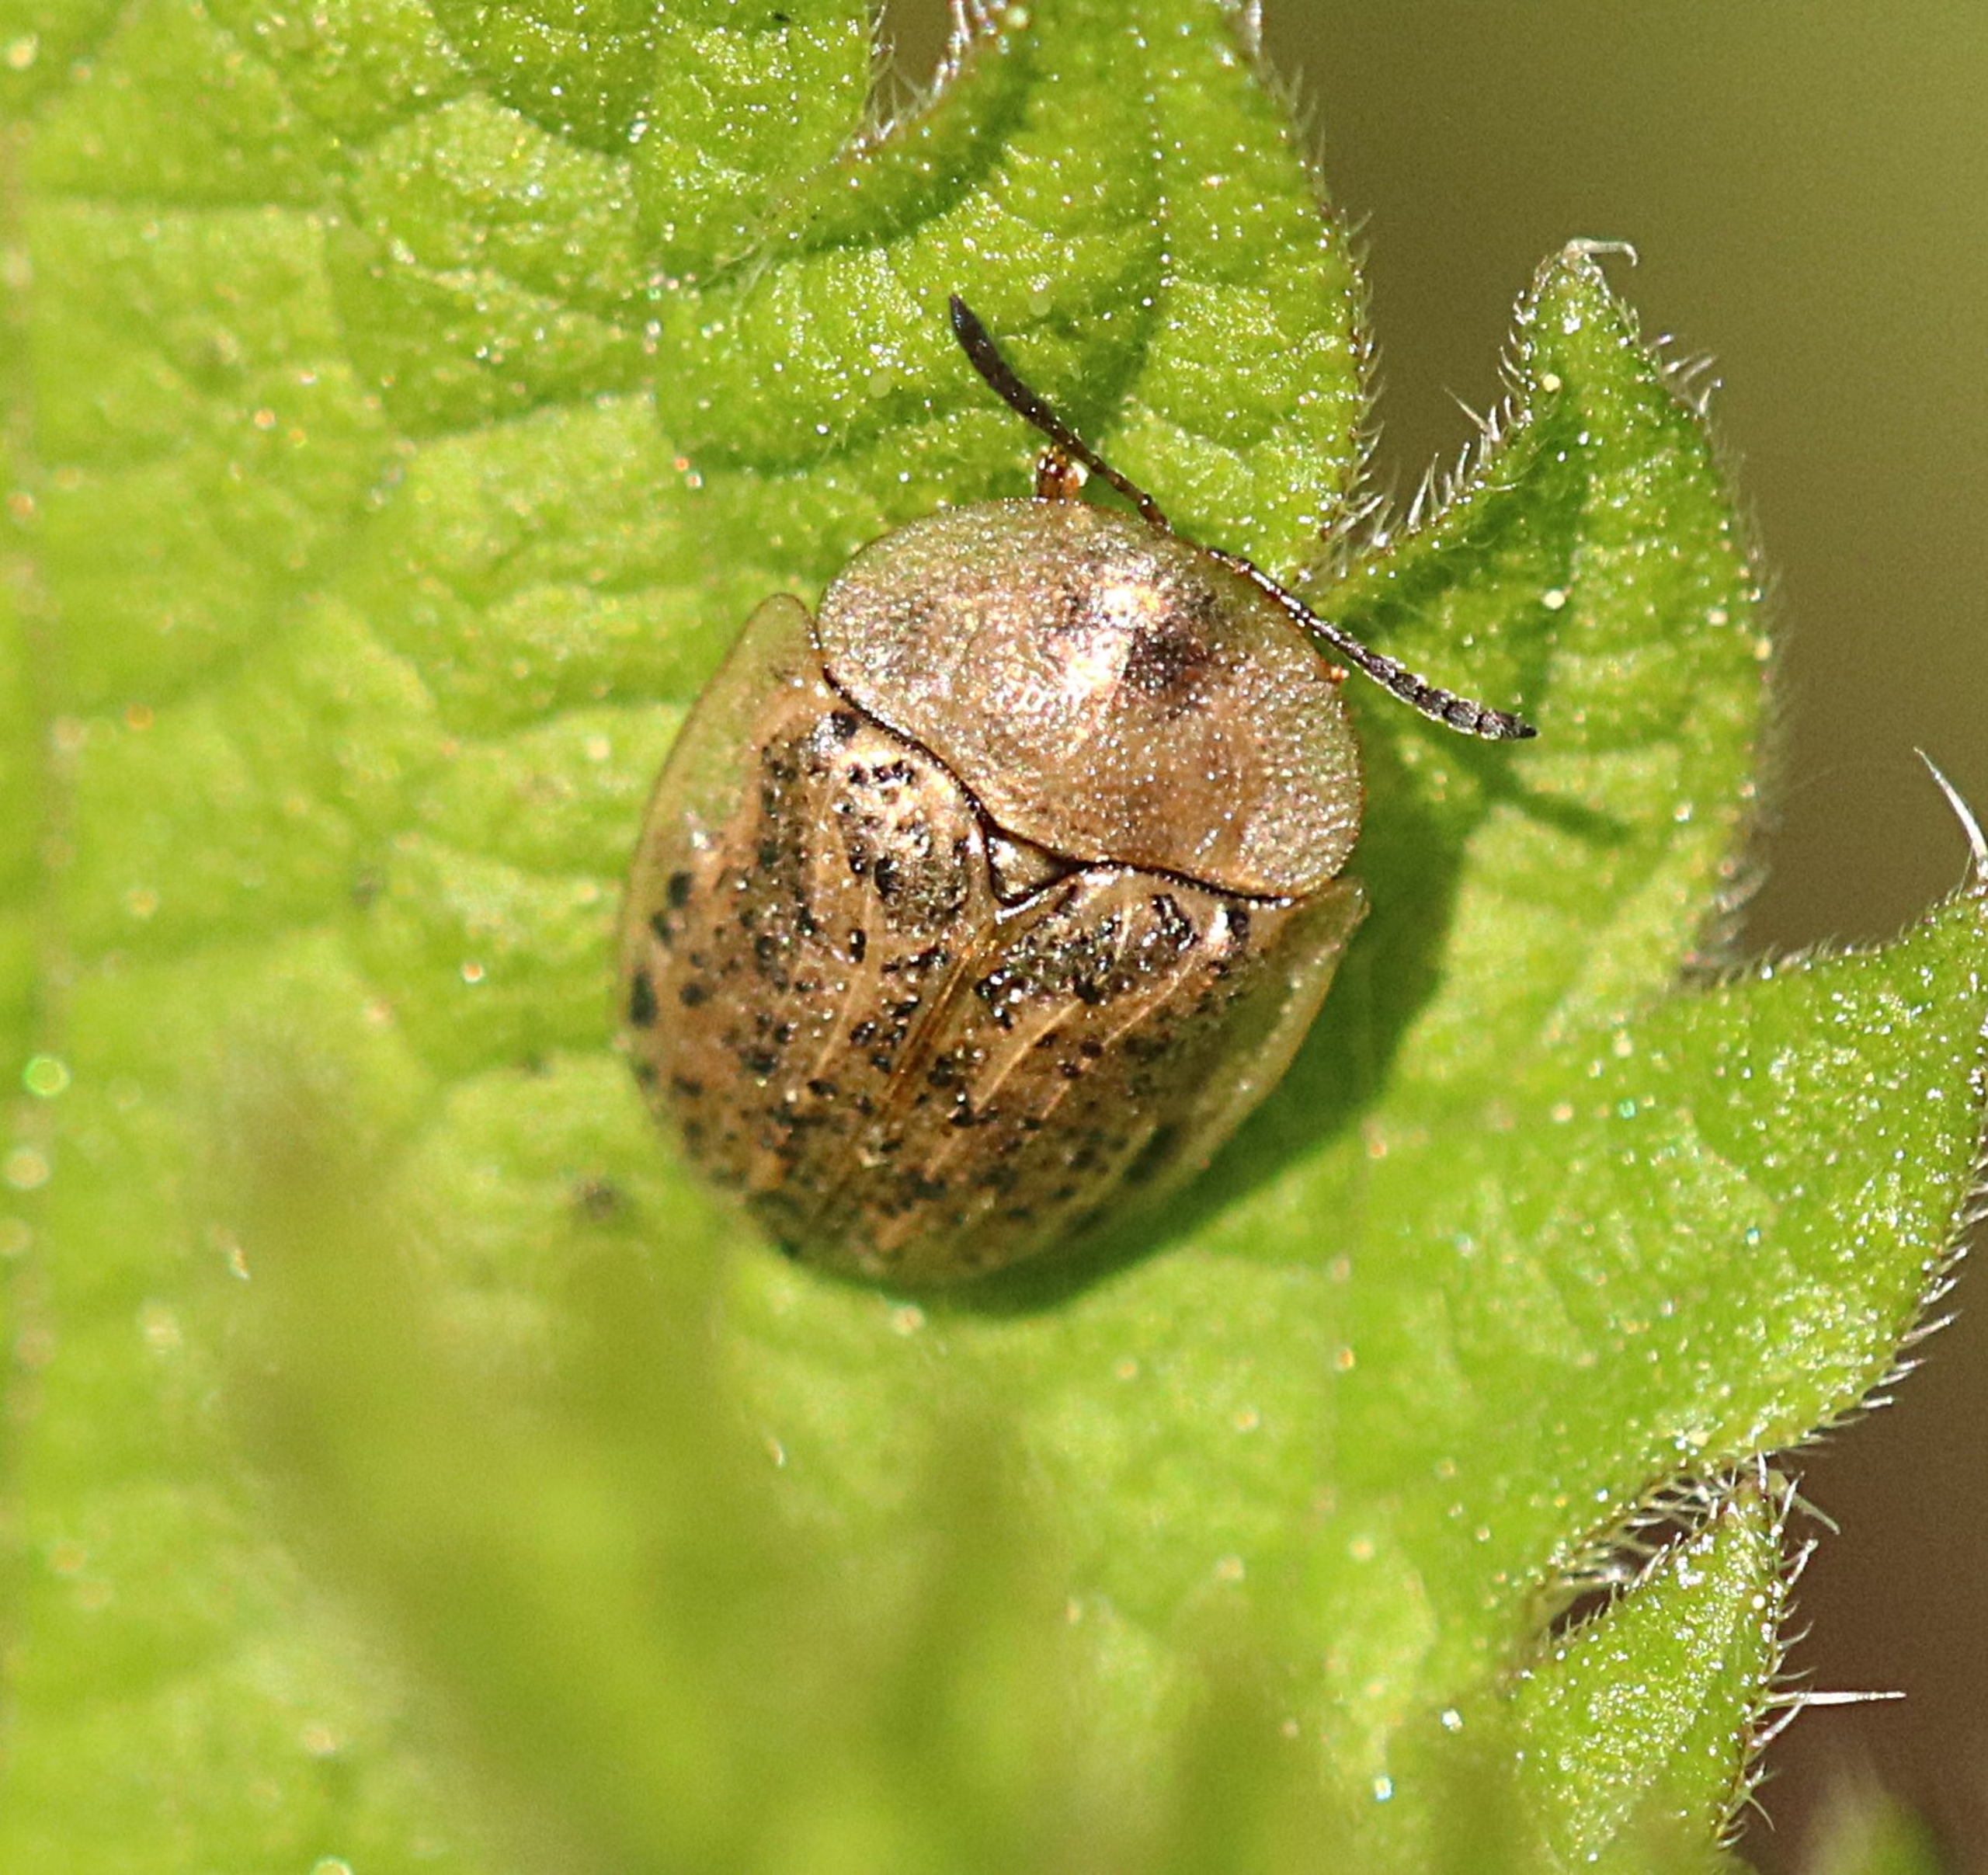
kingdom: Animalia
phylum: Arthropoda
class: Insecta
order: Coleoptera
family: Chrysomelidae
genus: Cassida
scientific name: Cassida nebulosa
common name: Plettet skjoldbille
